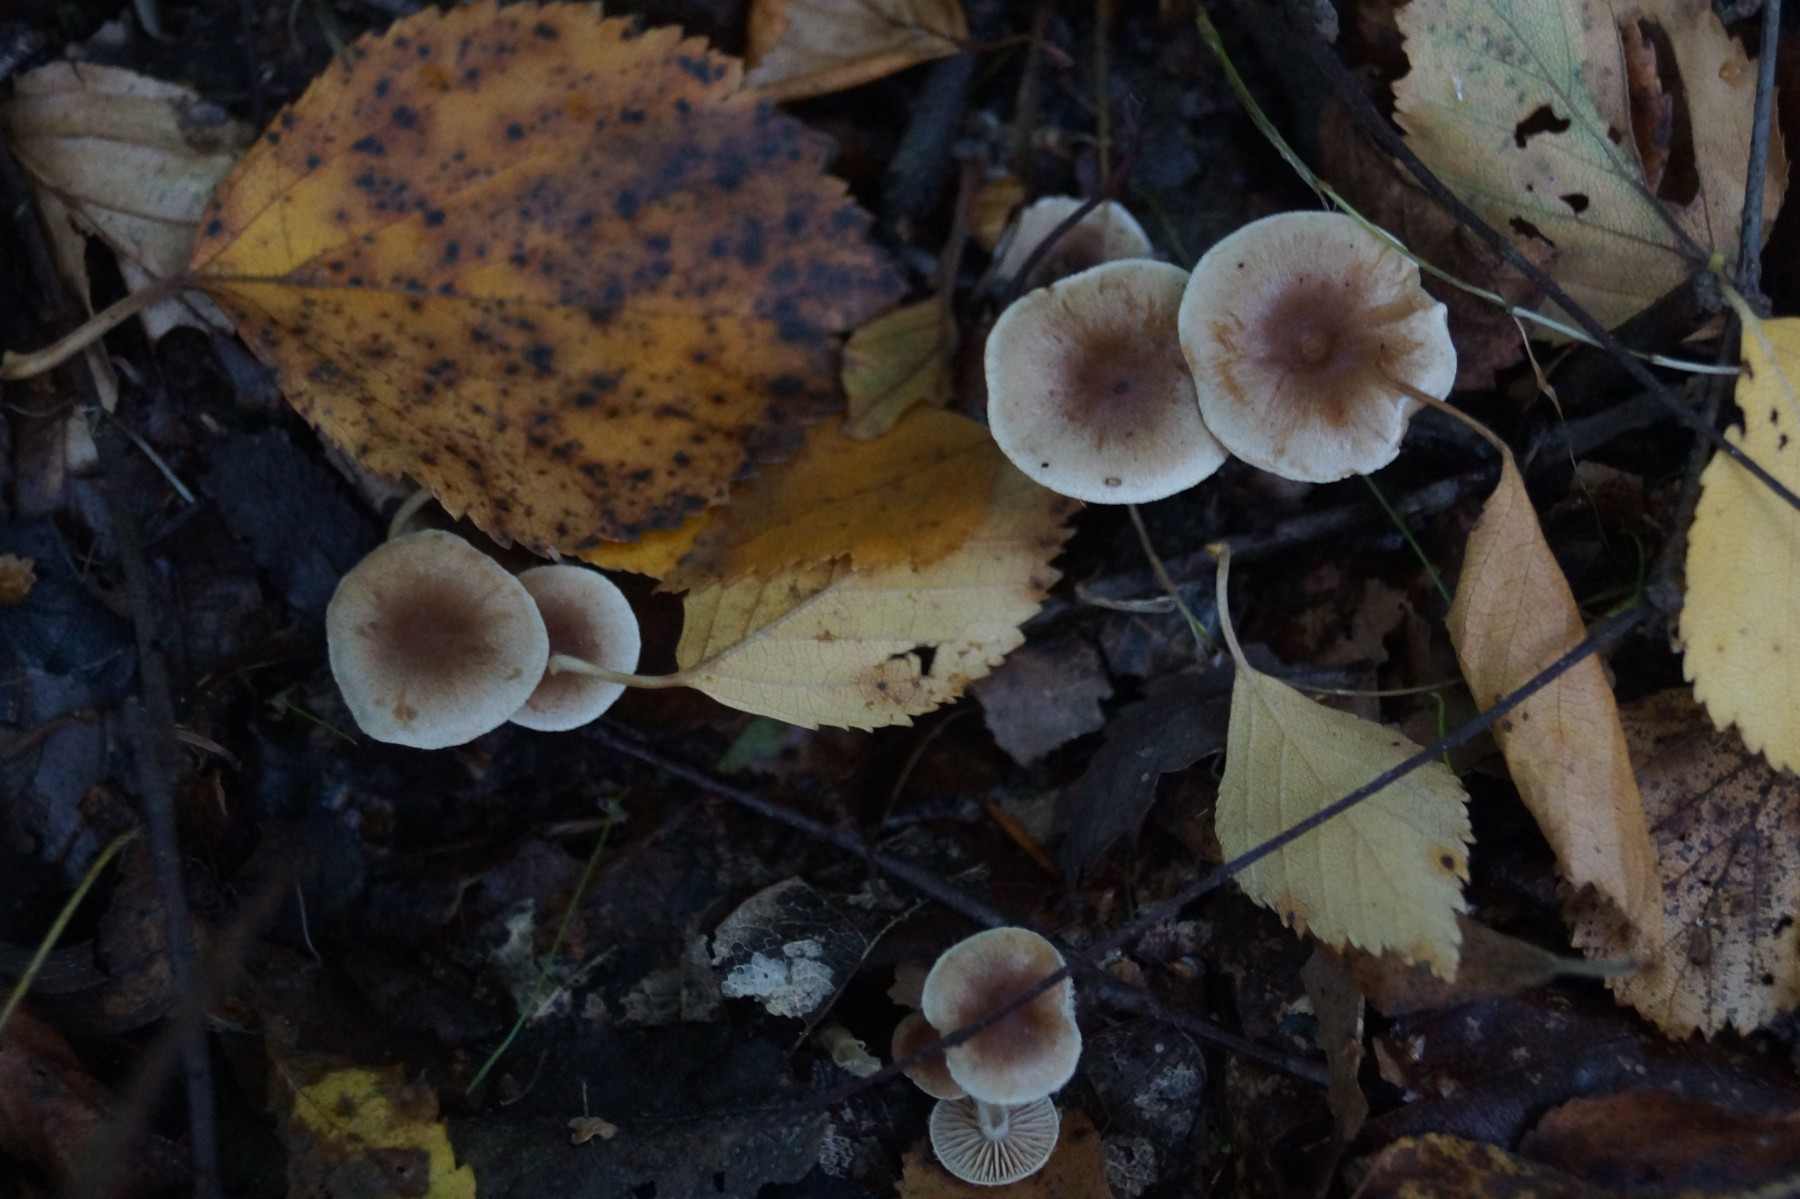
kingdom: Fungi
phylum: Basidiomycota
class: Agaricomycetes
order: Agaricales
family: Hymenogastraceae
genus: Naucoria
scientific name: Naucoria
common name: knaphat
